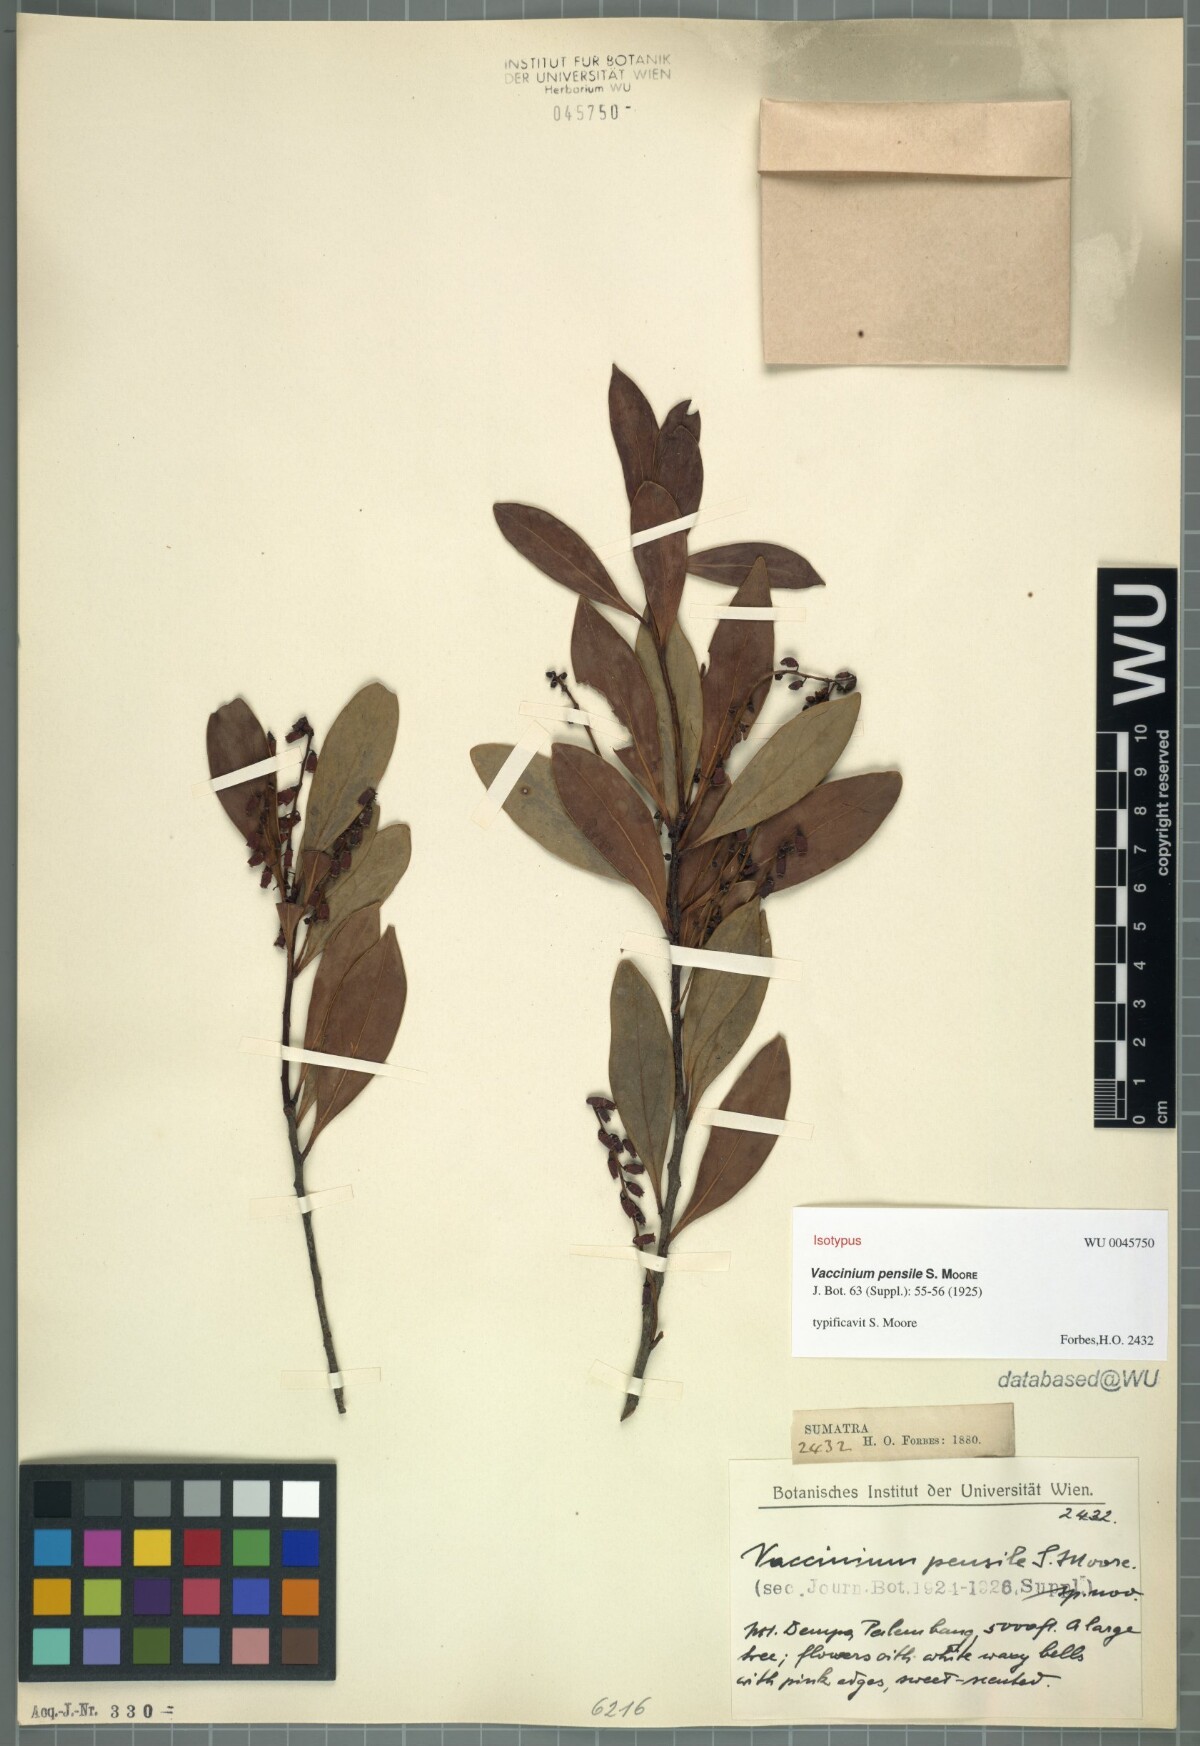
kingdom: Plantae
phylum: Tracheophyta
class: Magnoliopsida
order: Ericales
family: Ericaceae
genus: Vaccinium
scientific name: Vaccinium laurifolium
